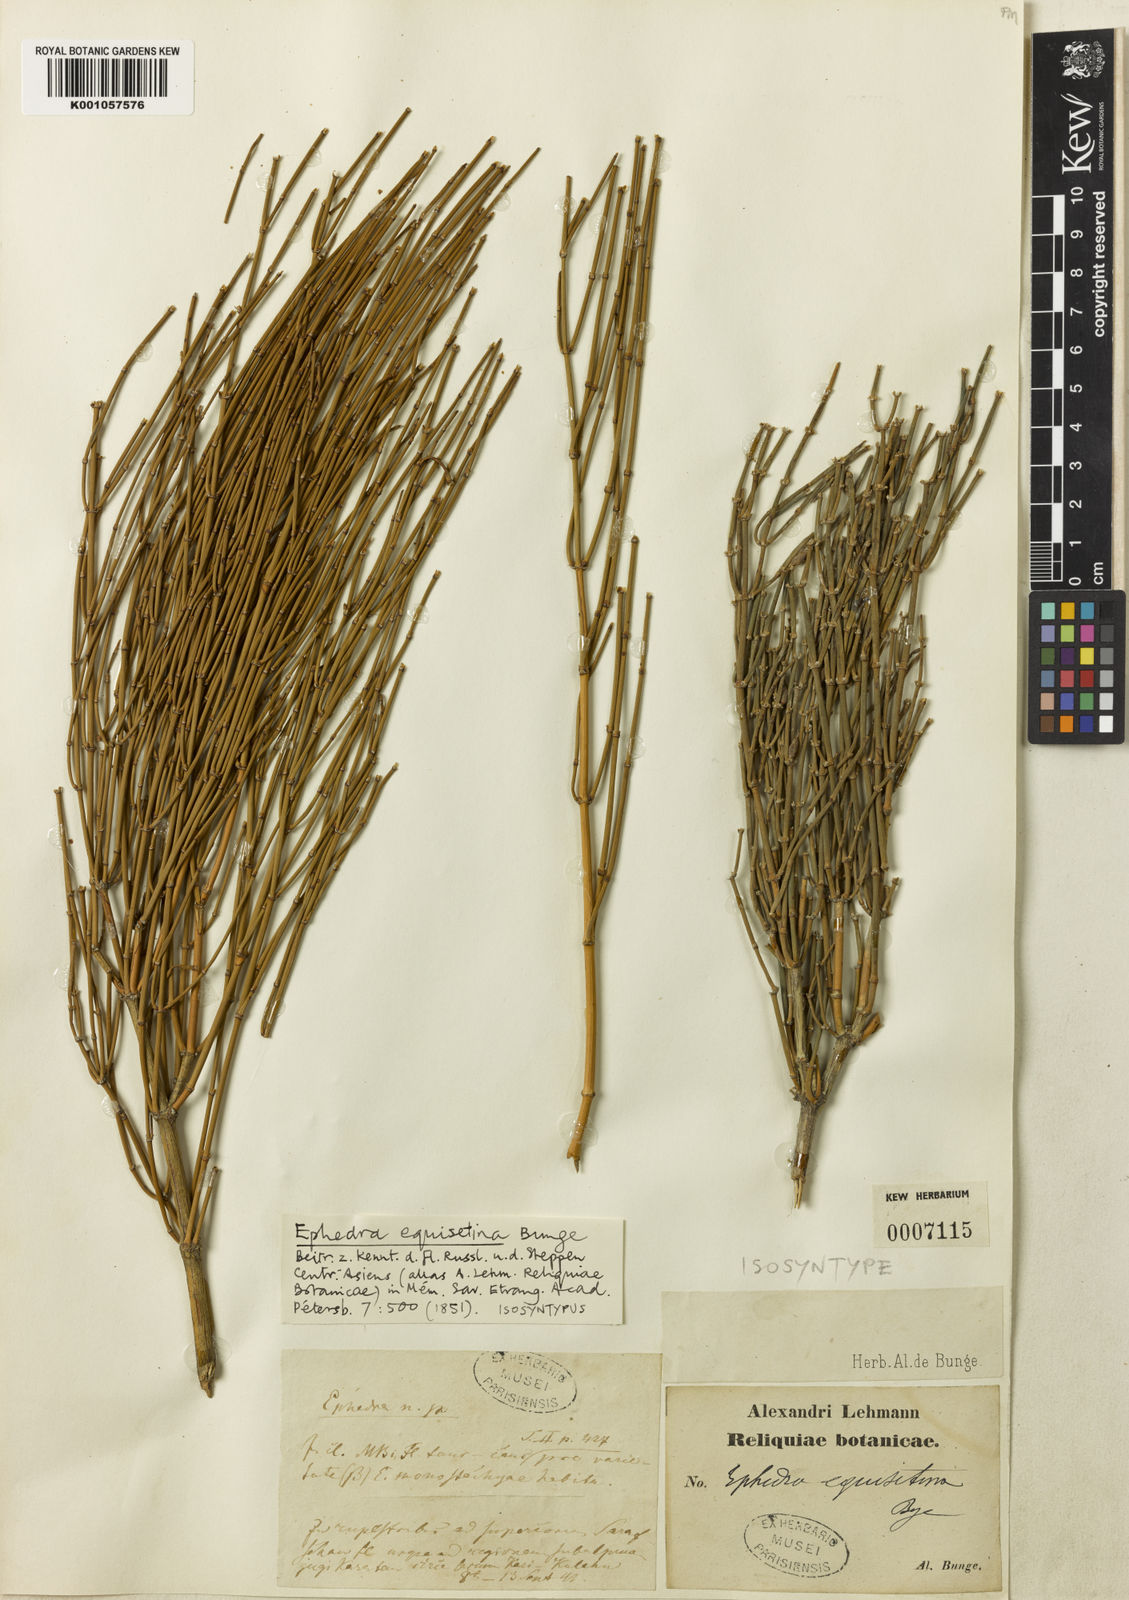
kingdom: Plantae
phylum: Tracheophyta
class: Gnetopsida
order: Ephedrales
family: Ephedraceae
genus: Ephedra
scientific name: Ephedra equisetina
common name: Mongolian ephedra
